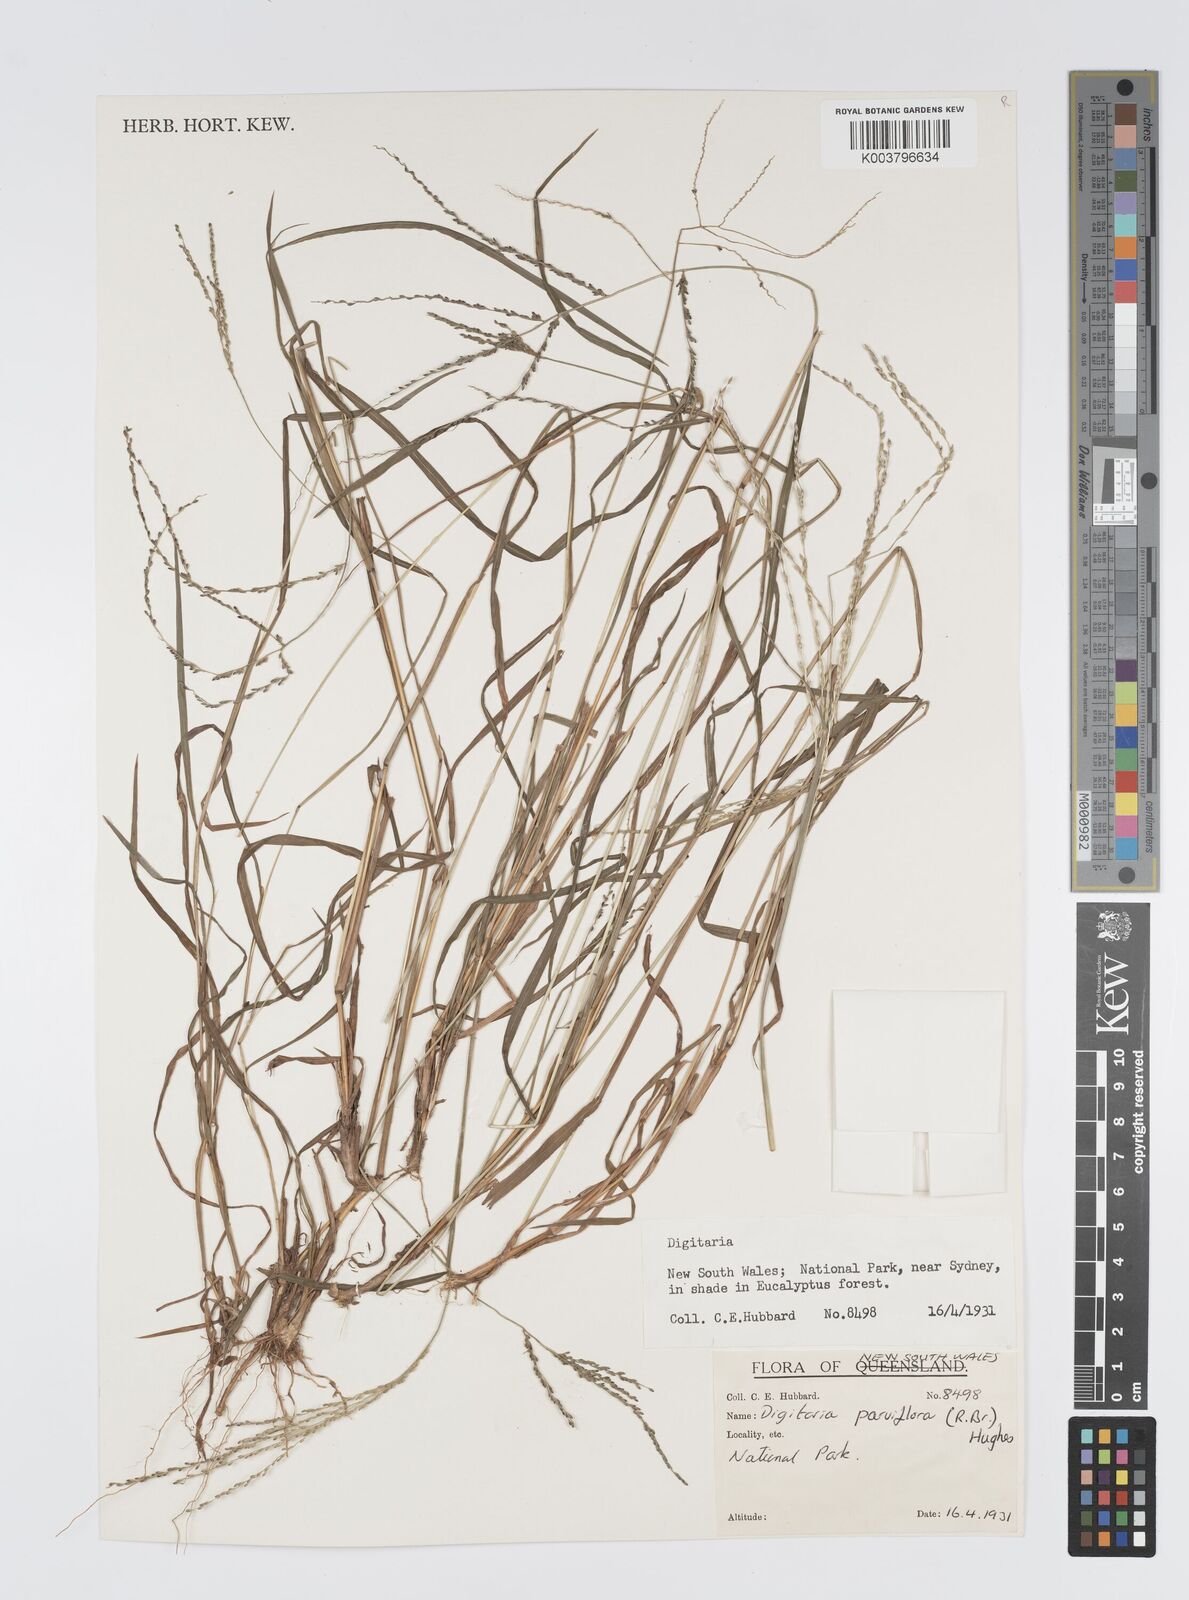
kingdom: Plantae
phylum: Tracheophyta
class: Liliopsida
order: Poales
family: Poaceae
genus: Digitaria
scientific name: Digitaria parviflora
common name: Small-flower finger grass
